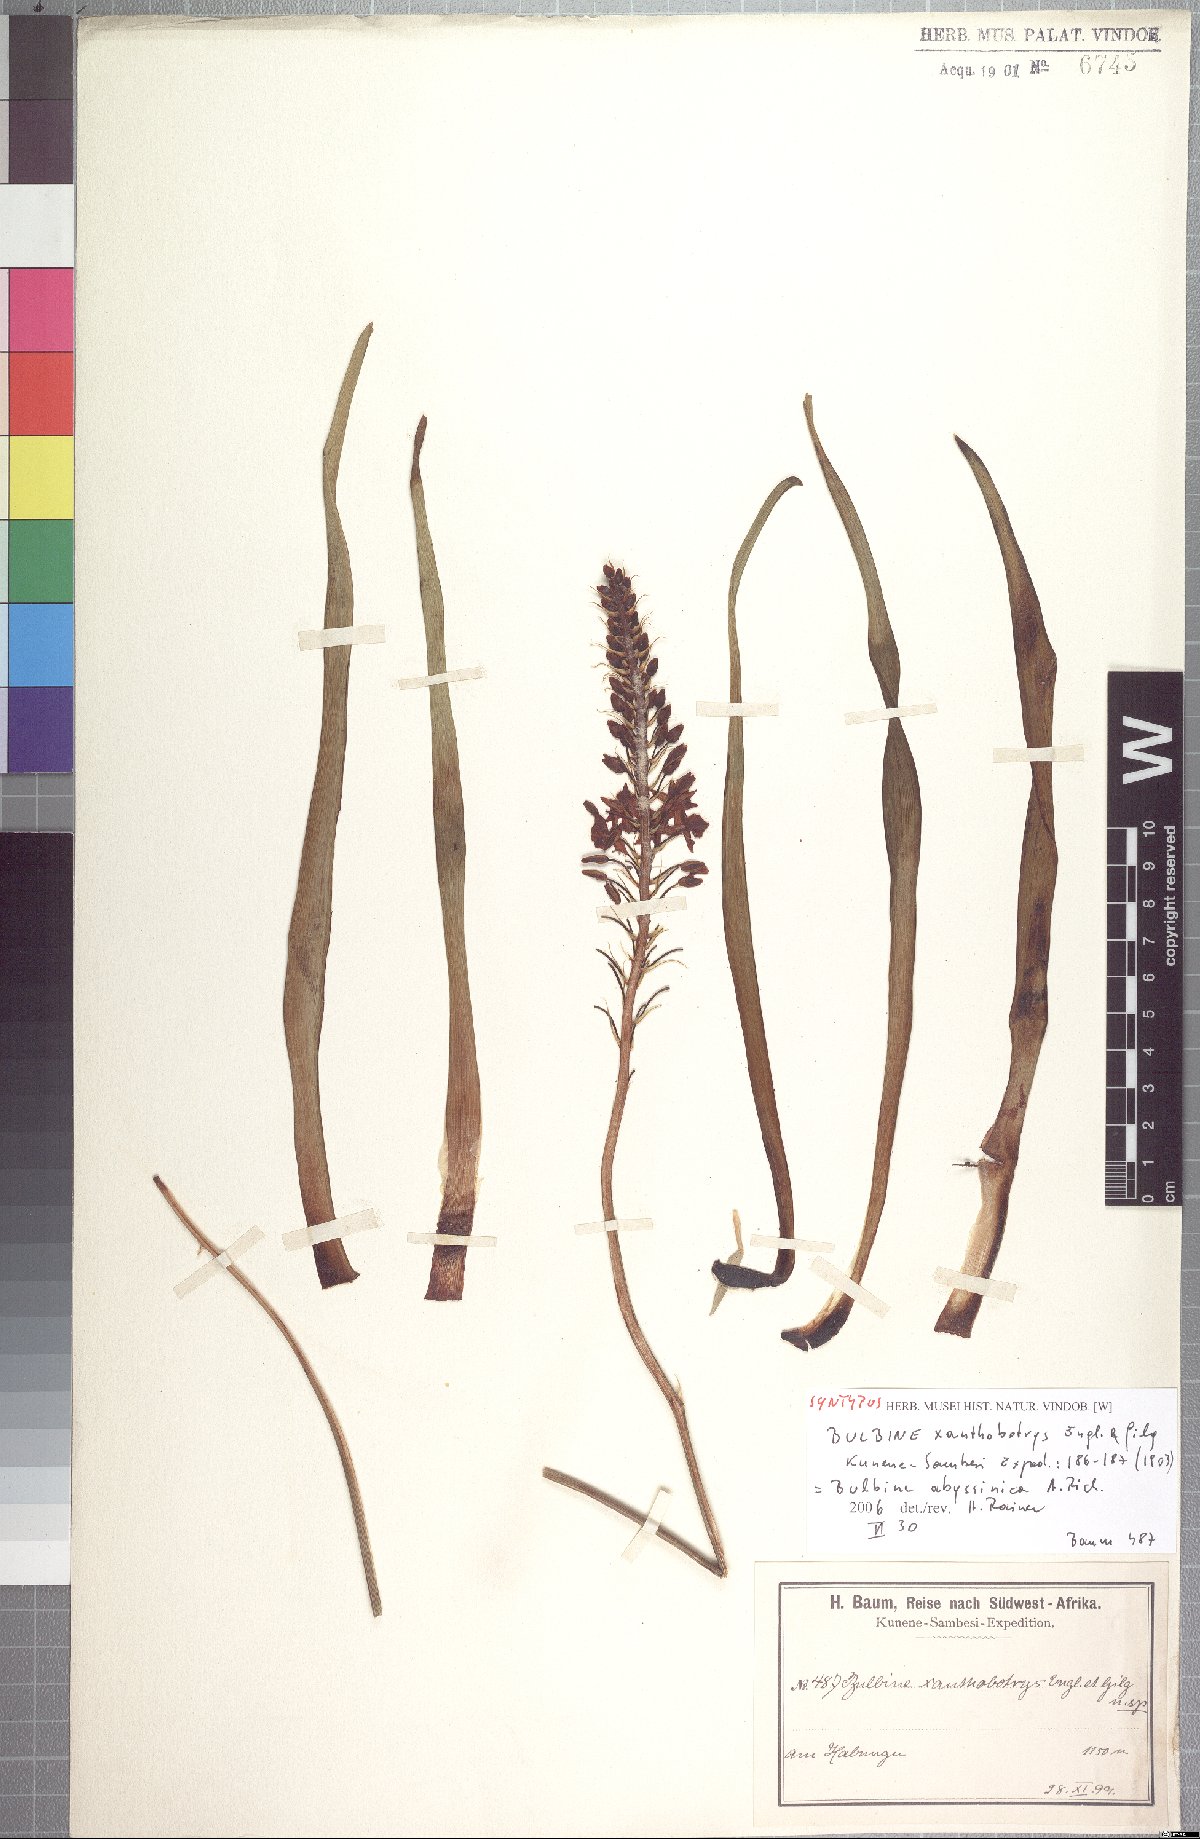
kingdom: Plantae
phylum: Tracheophyta
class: Liliopsida
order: Asparagales
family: Asphodelaceae
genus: Bulbine
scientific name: Bulbine abyssinica
